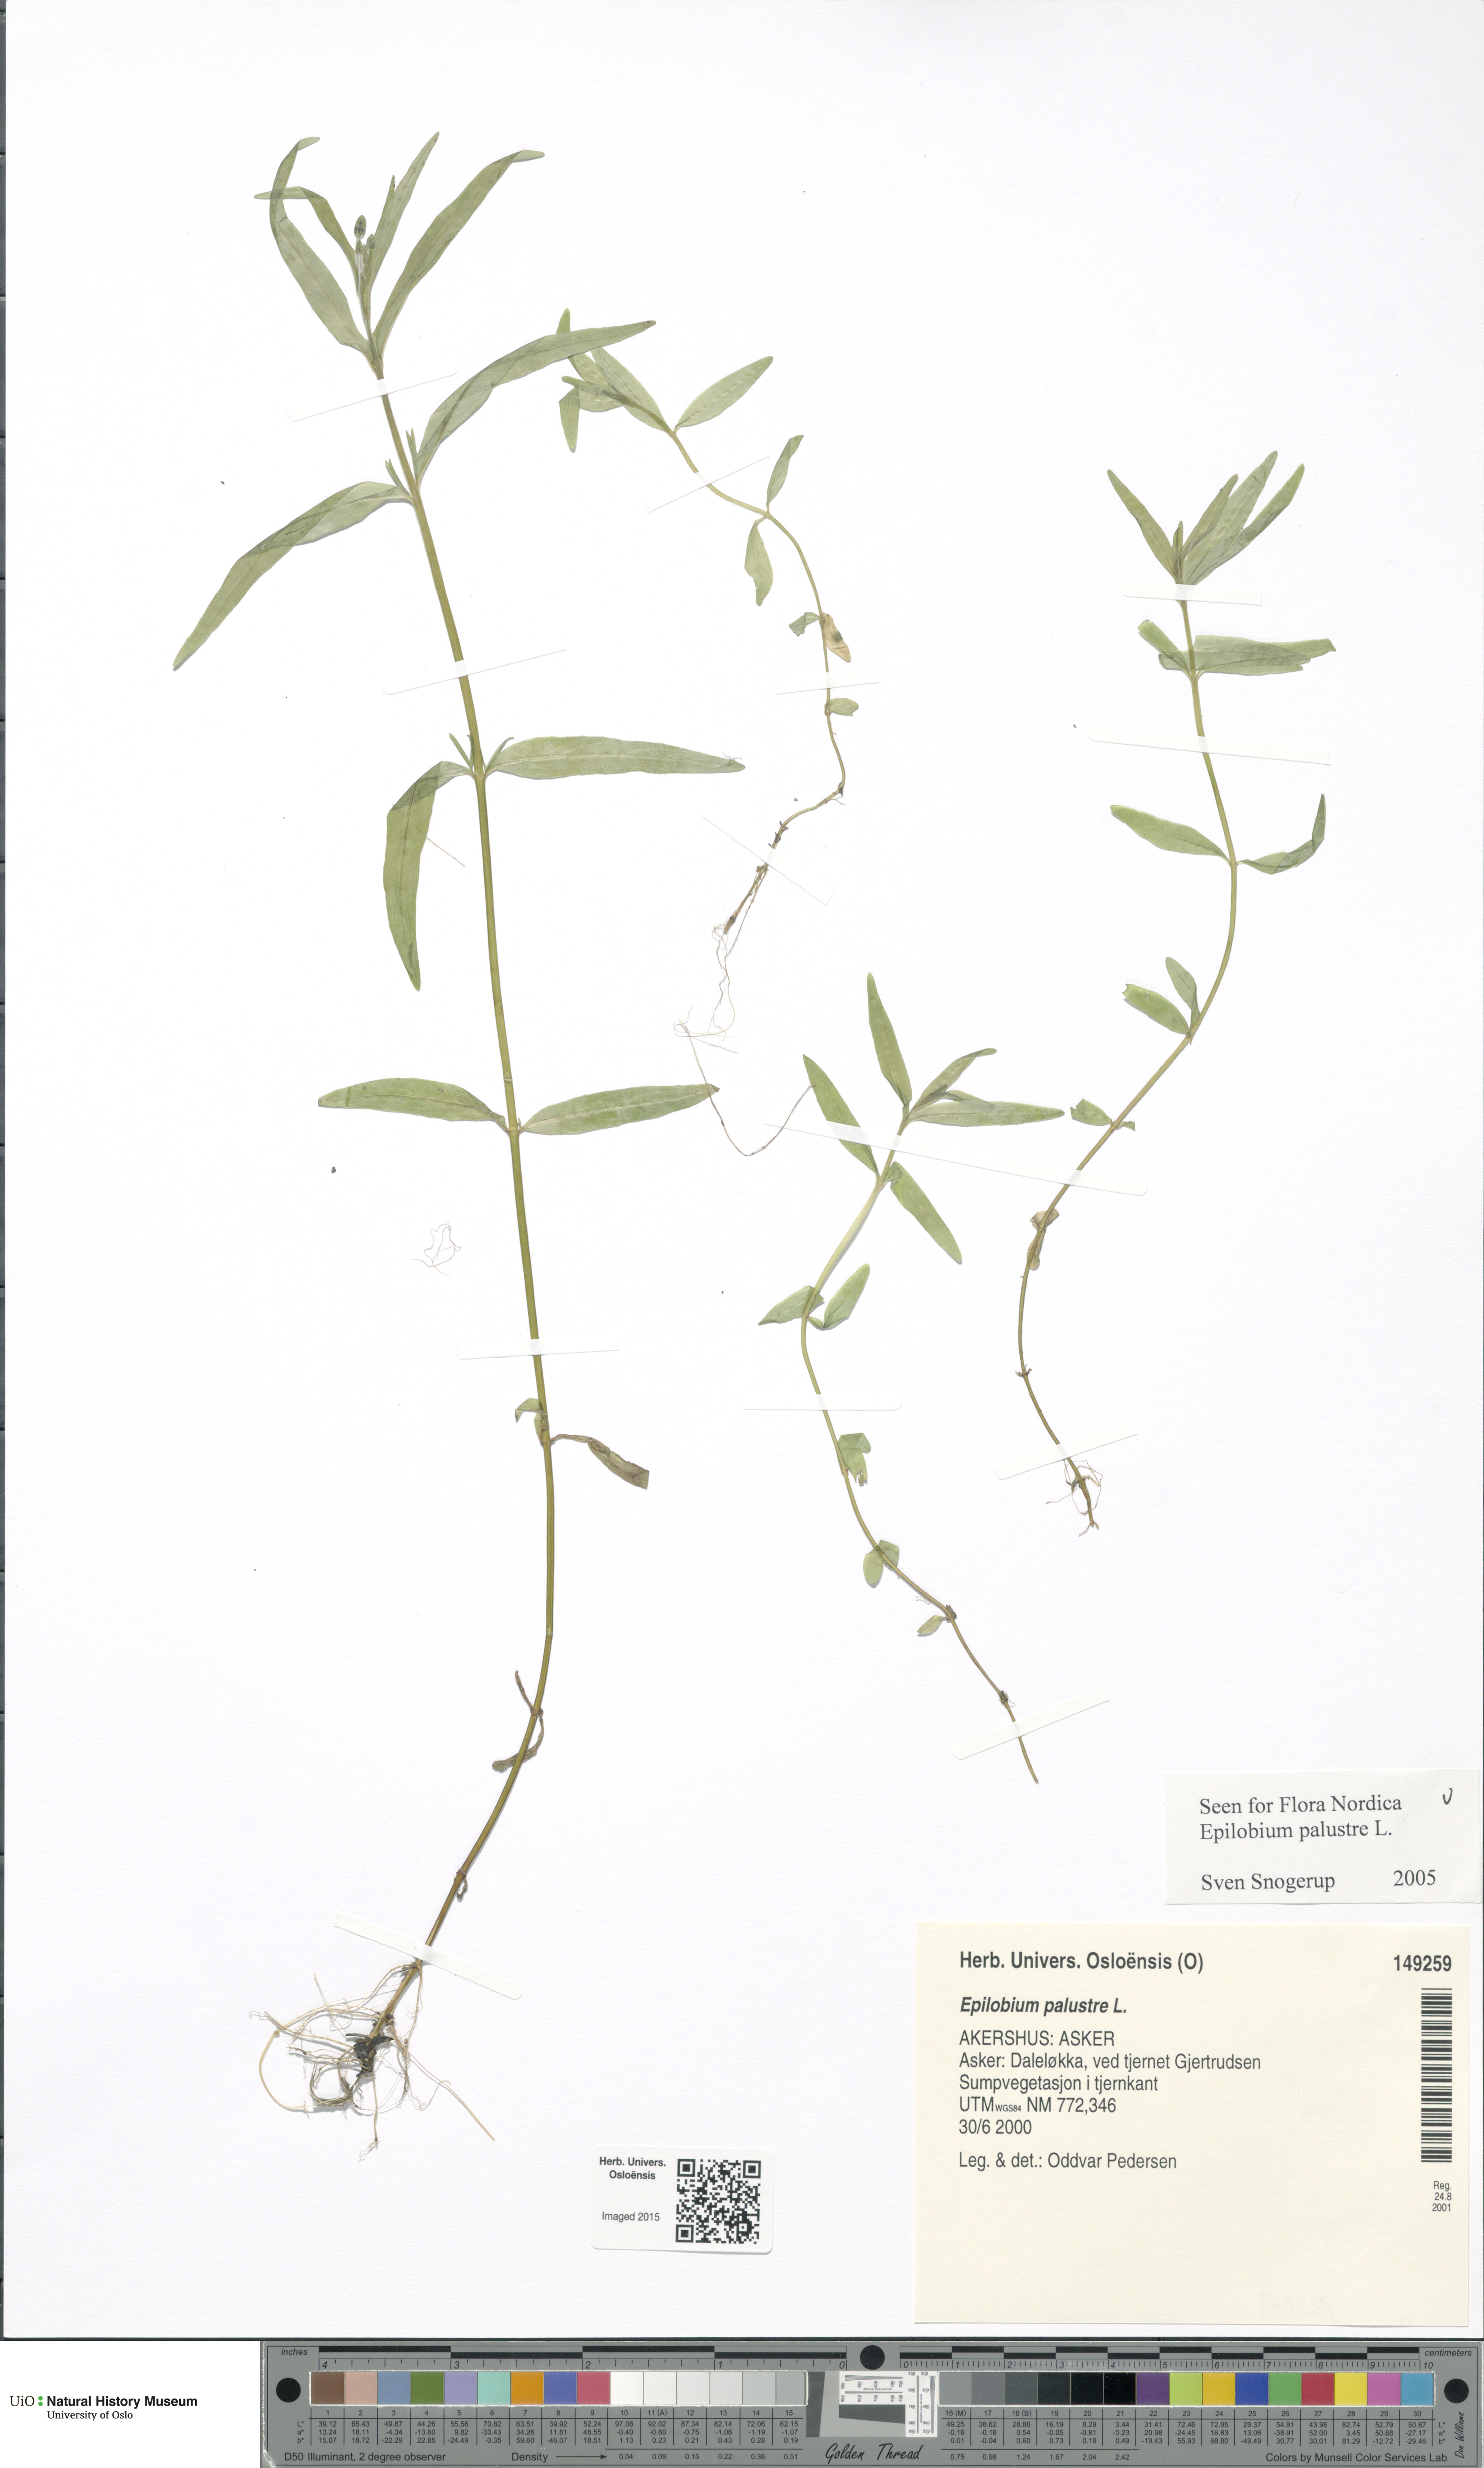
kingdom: Plantae
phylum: Tracheophyta
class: Magnoliopsida
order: Myrtales
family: Onagraceae
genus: Epilobium
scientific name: Epilobium palustre
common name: Marsh willowherb
